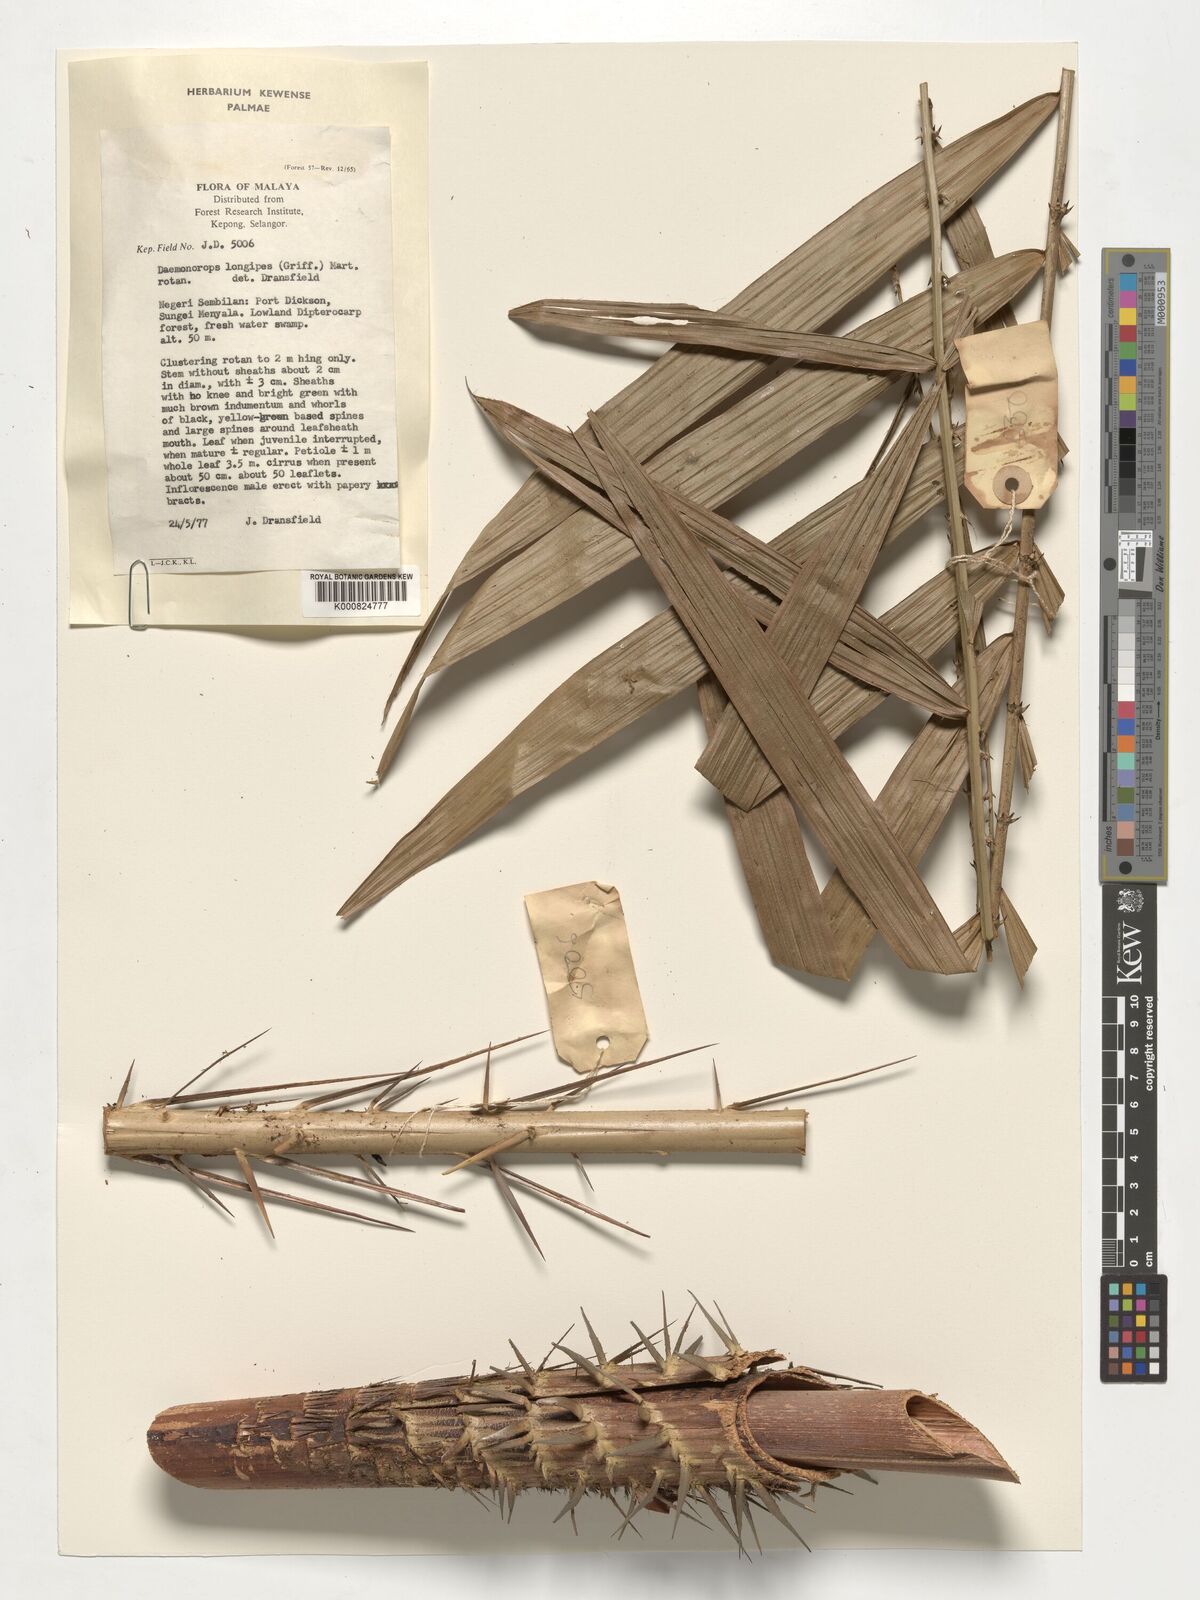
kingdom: Plantae
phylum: Tracheophyta
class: Liliopsida
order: Arecales
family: Arecaceae
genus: Calamus
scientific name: Calamus longipes
